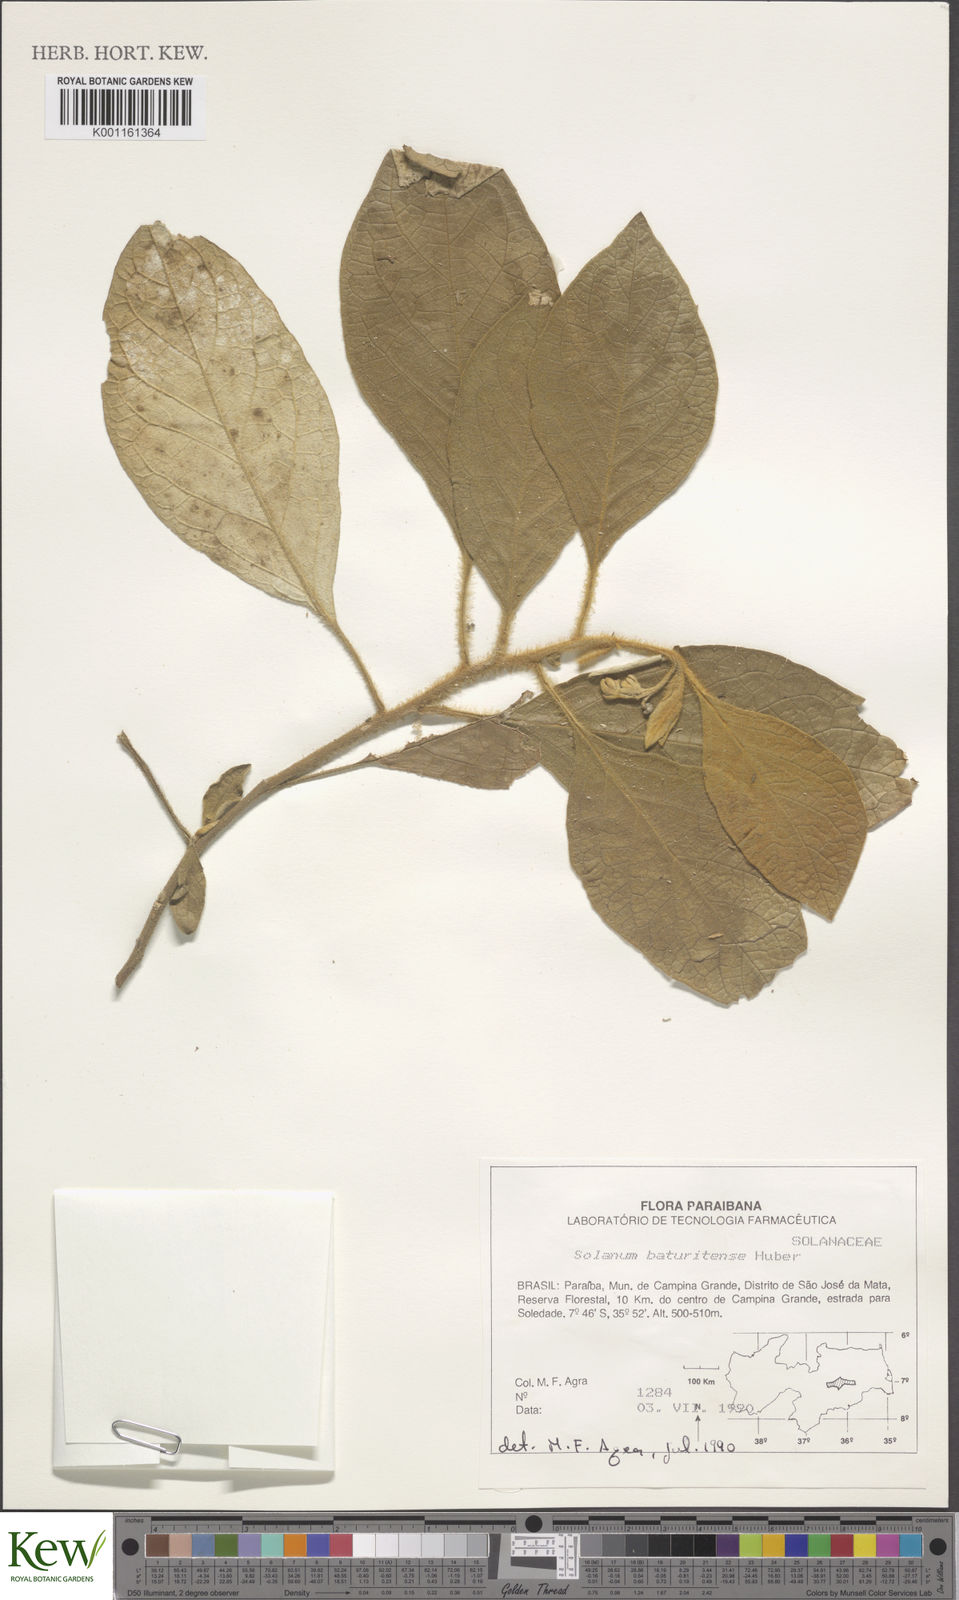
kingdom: Plantae
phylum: Tracheophyta
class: Magnoliopsida
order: Solanales
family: Solanaceae
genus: Solanum
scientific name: Solanum rhytidoandrum
